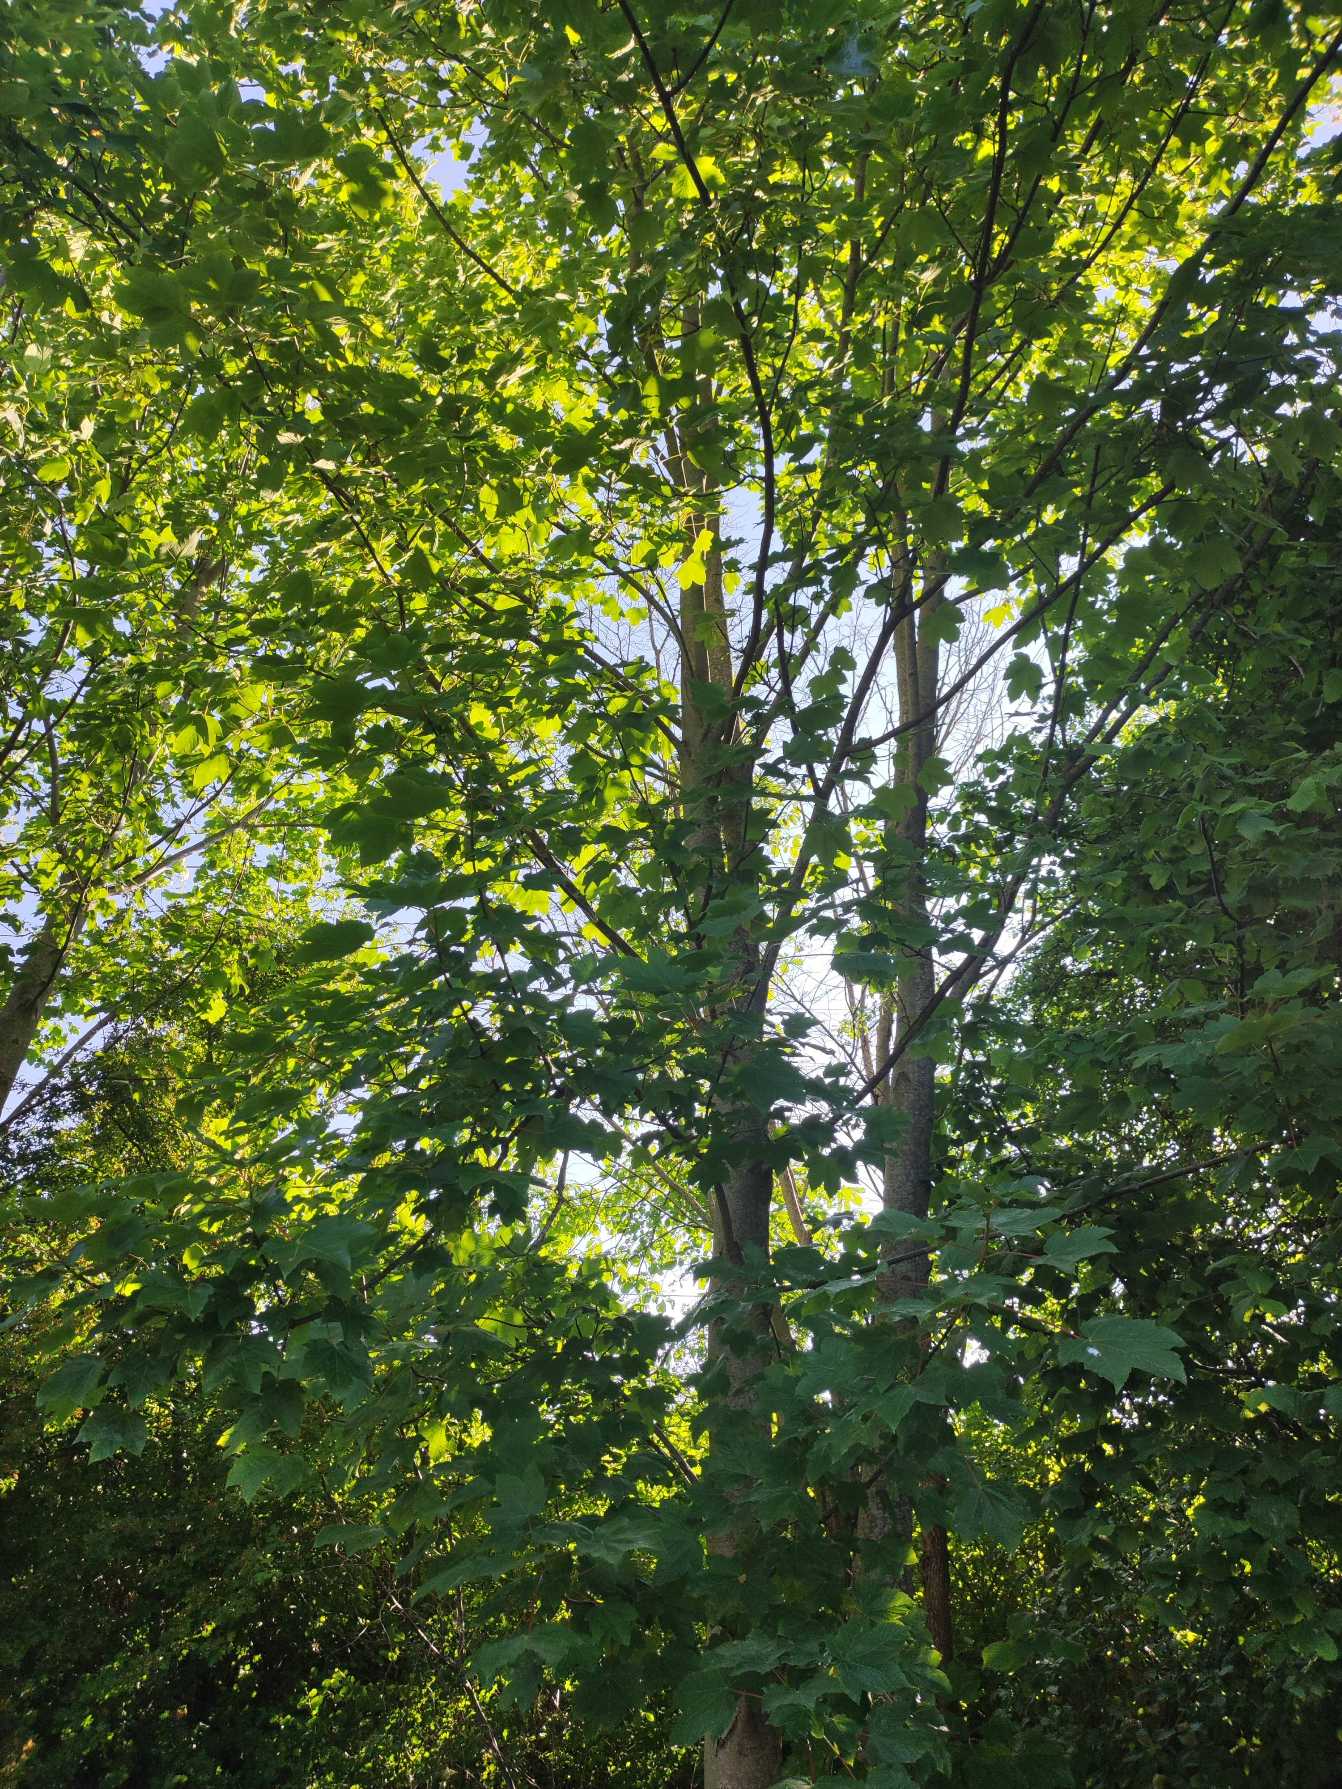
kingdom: Plantae
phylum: Tracheophyta
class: Magnoliopsida
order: Sapindales
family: Sapindaceae
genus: Acer
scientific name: Acer pseudoplatanus
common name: Ahorn
